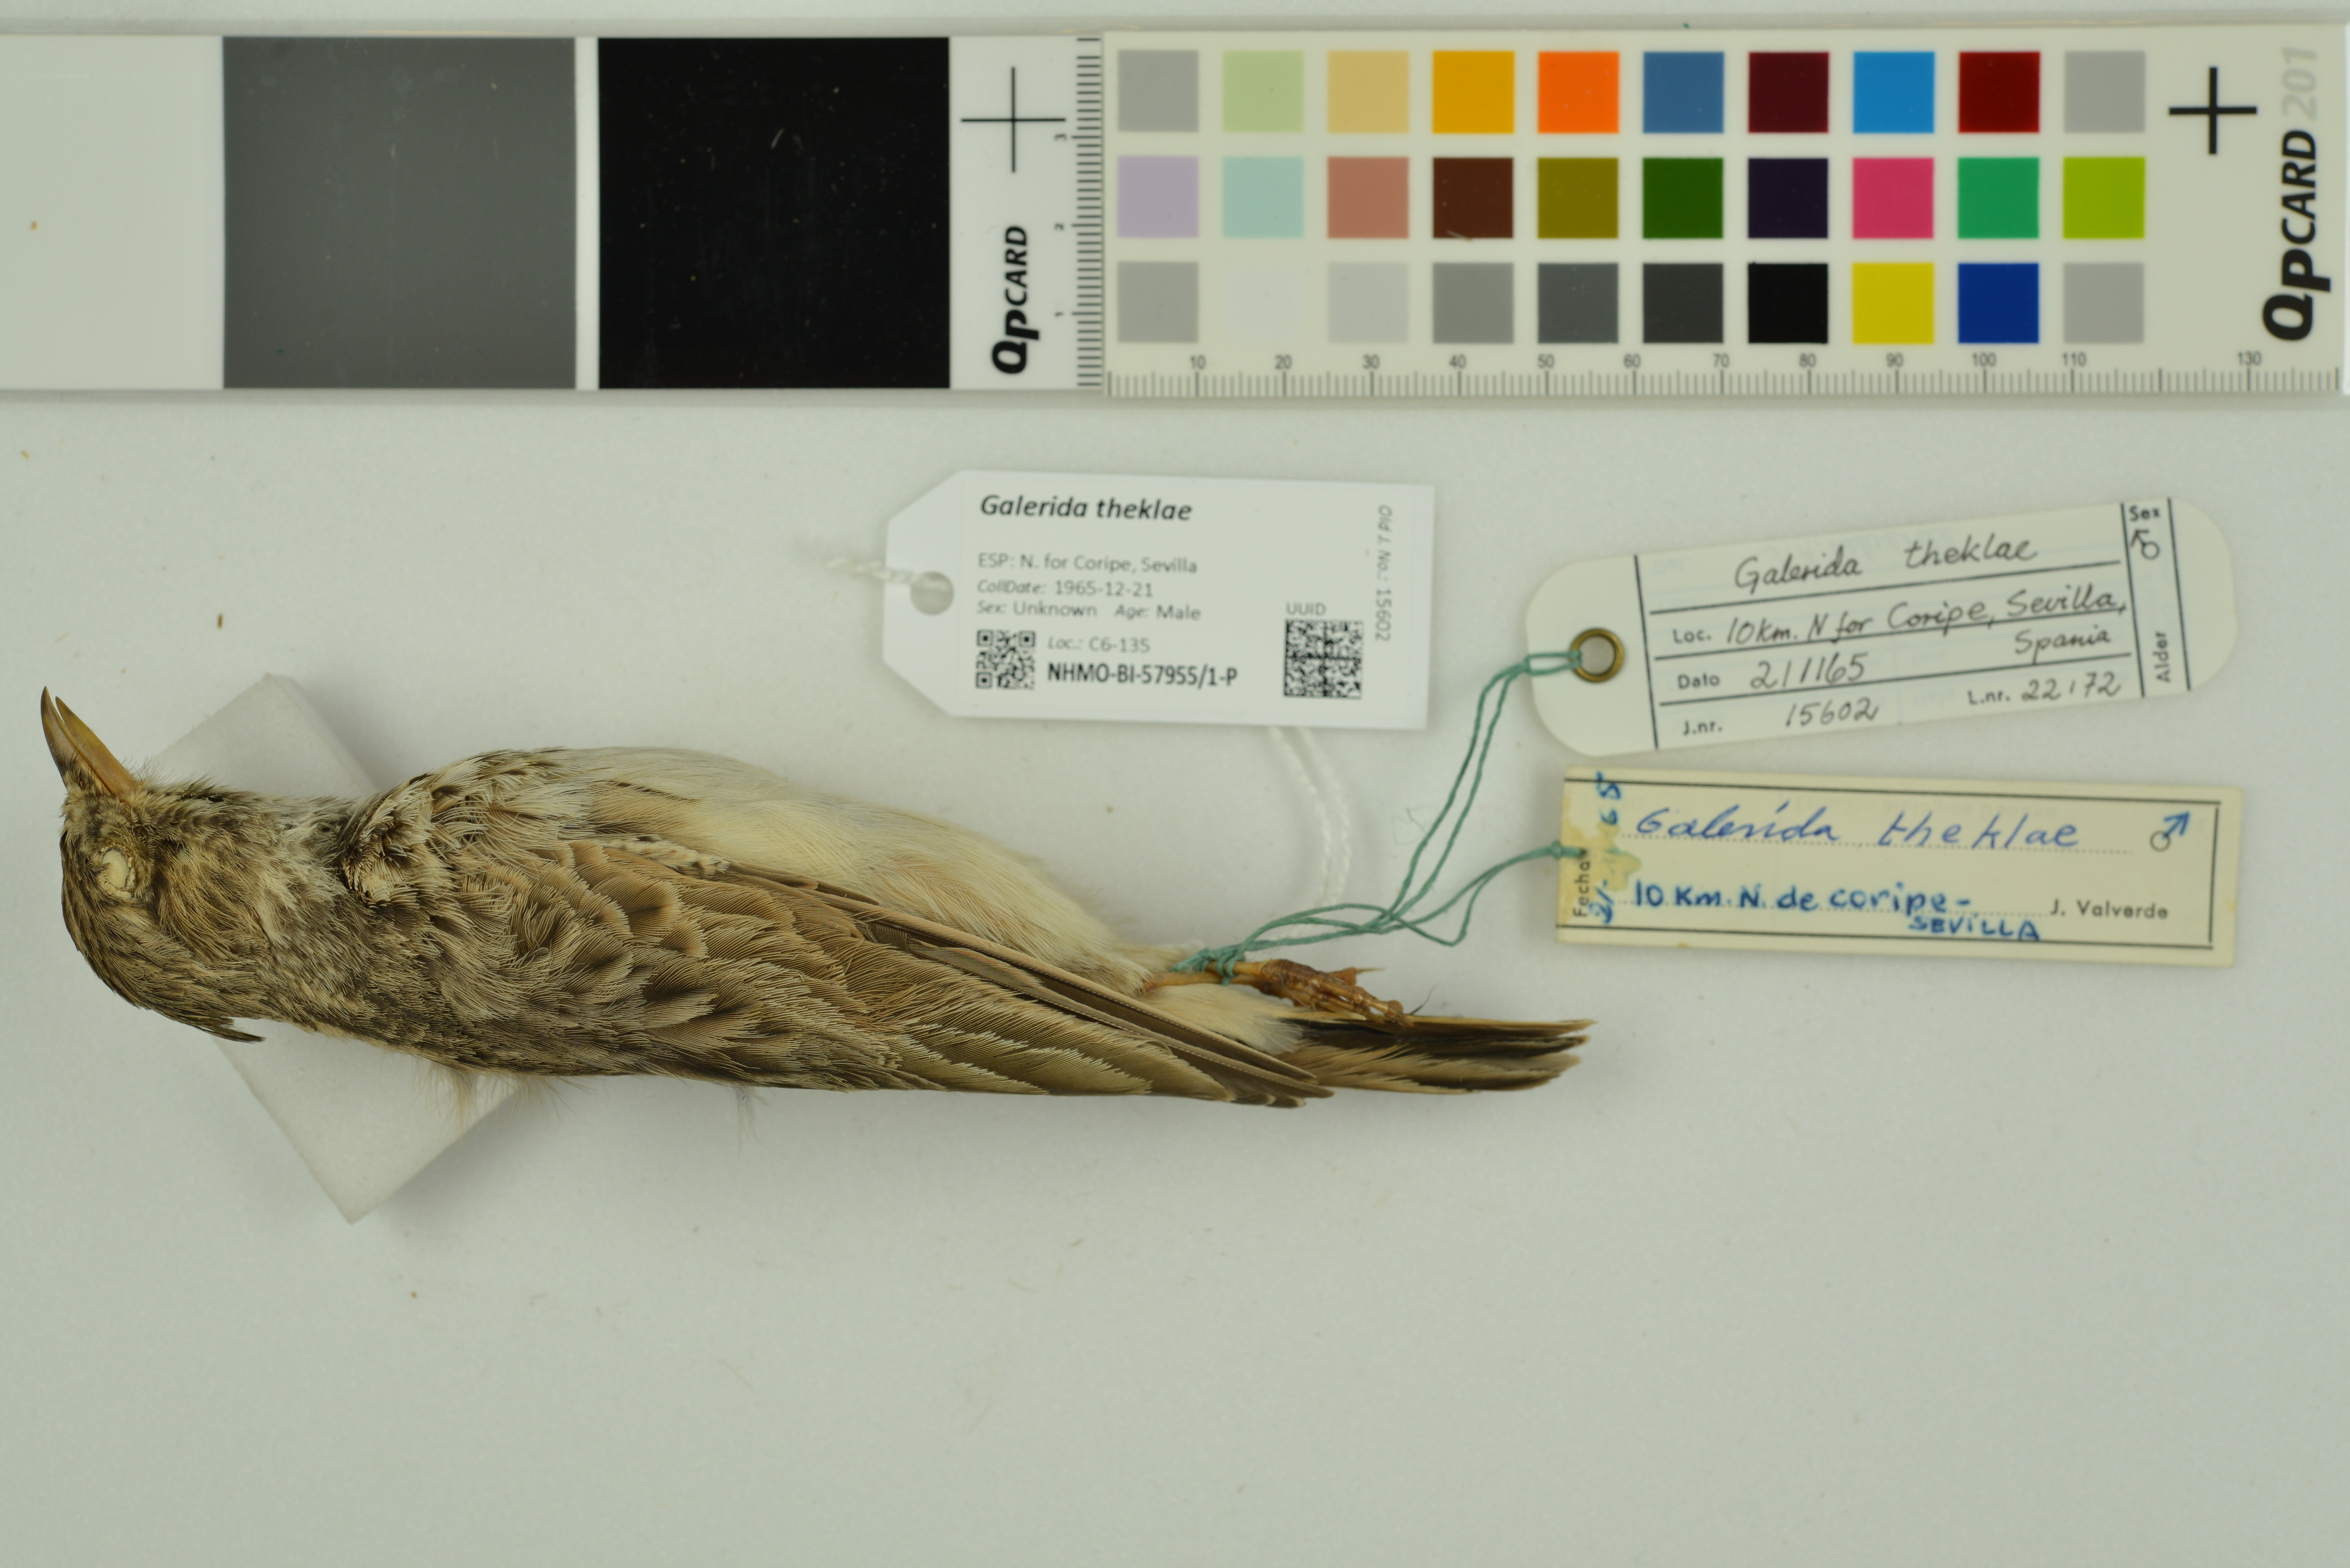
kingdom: Animalia
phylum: Chordata
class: Aves
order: Passeriformes
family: Alaudidae
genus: Galerida
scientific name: Galerida theklae
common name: Thekla lark
